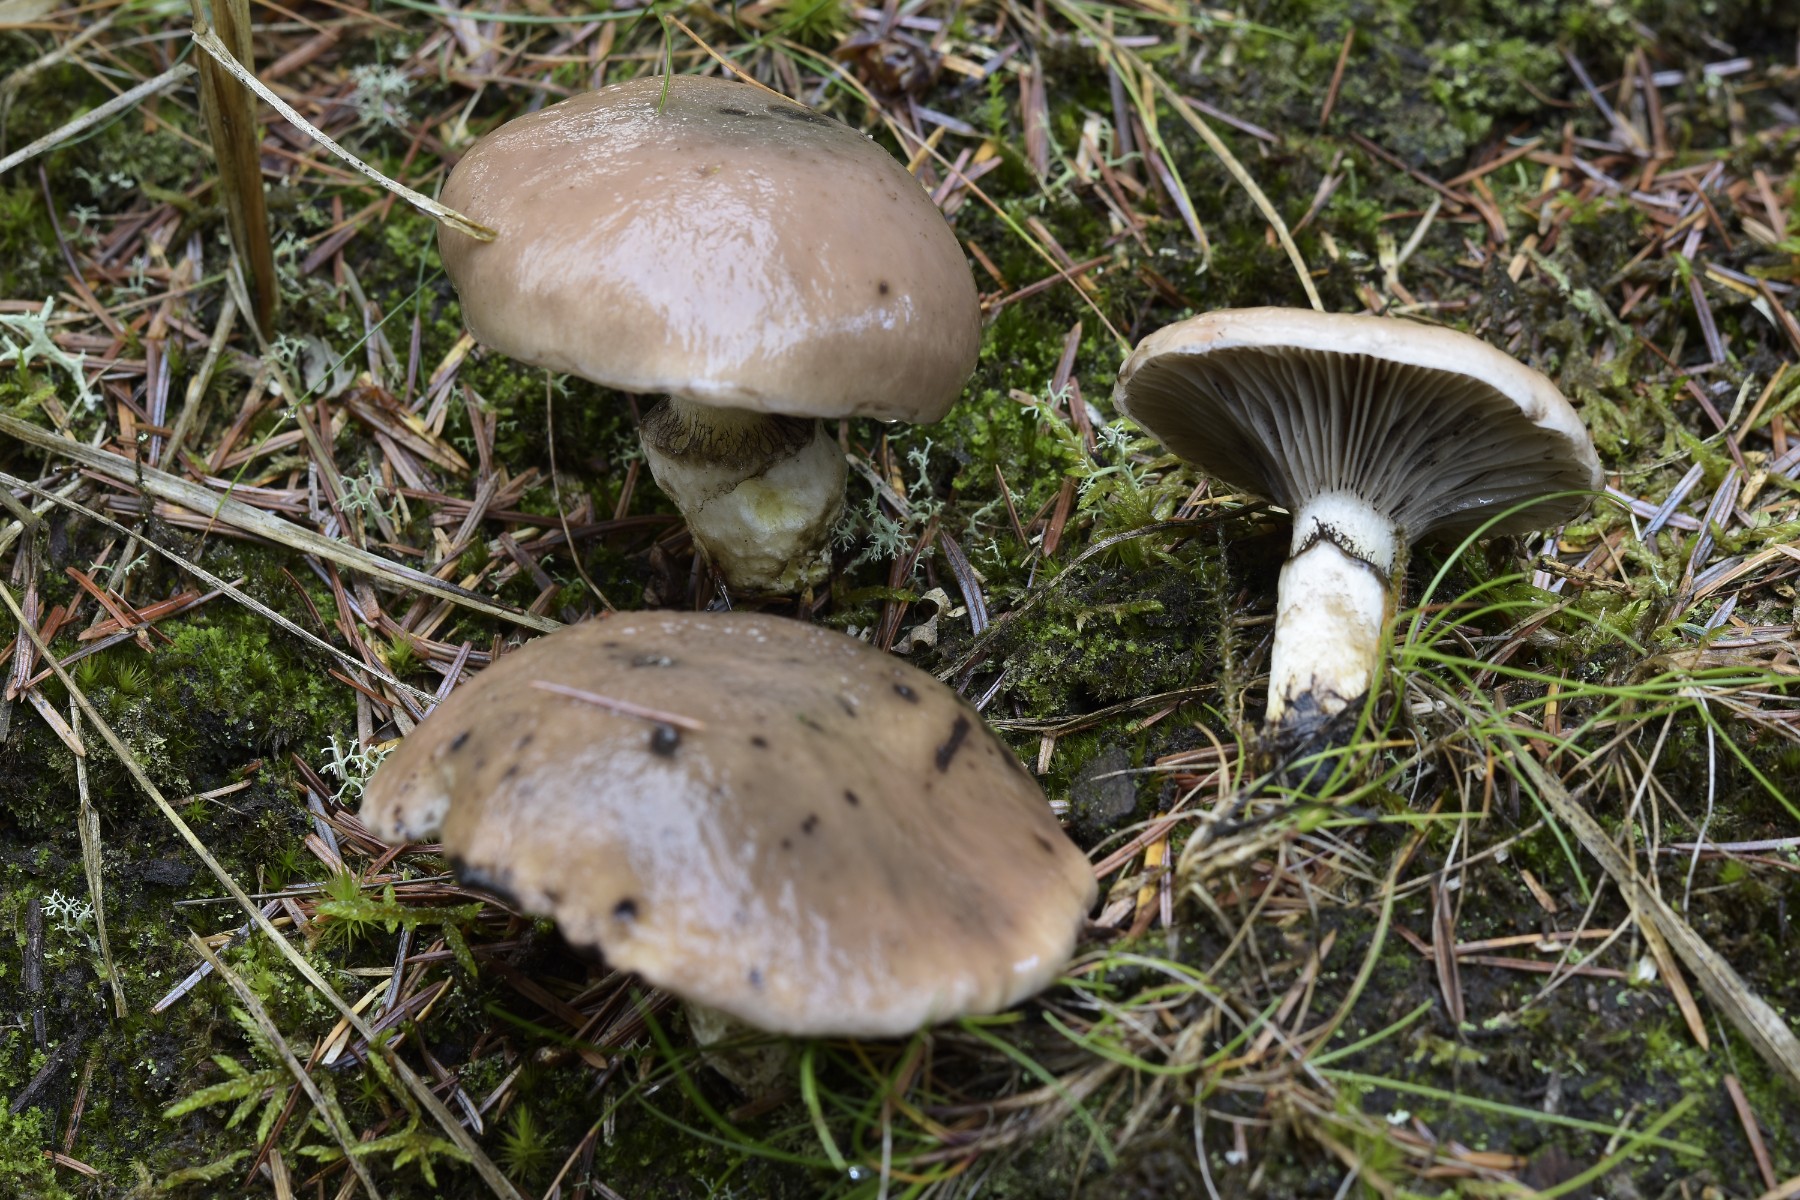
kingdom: Fungi
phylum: Basidiomycota
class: Agaricomycetes
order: Boletales
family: Gomphidiaceae
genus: Gomphidius
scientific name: Gomphidius glutinosus
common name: grå slimslør
